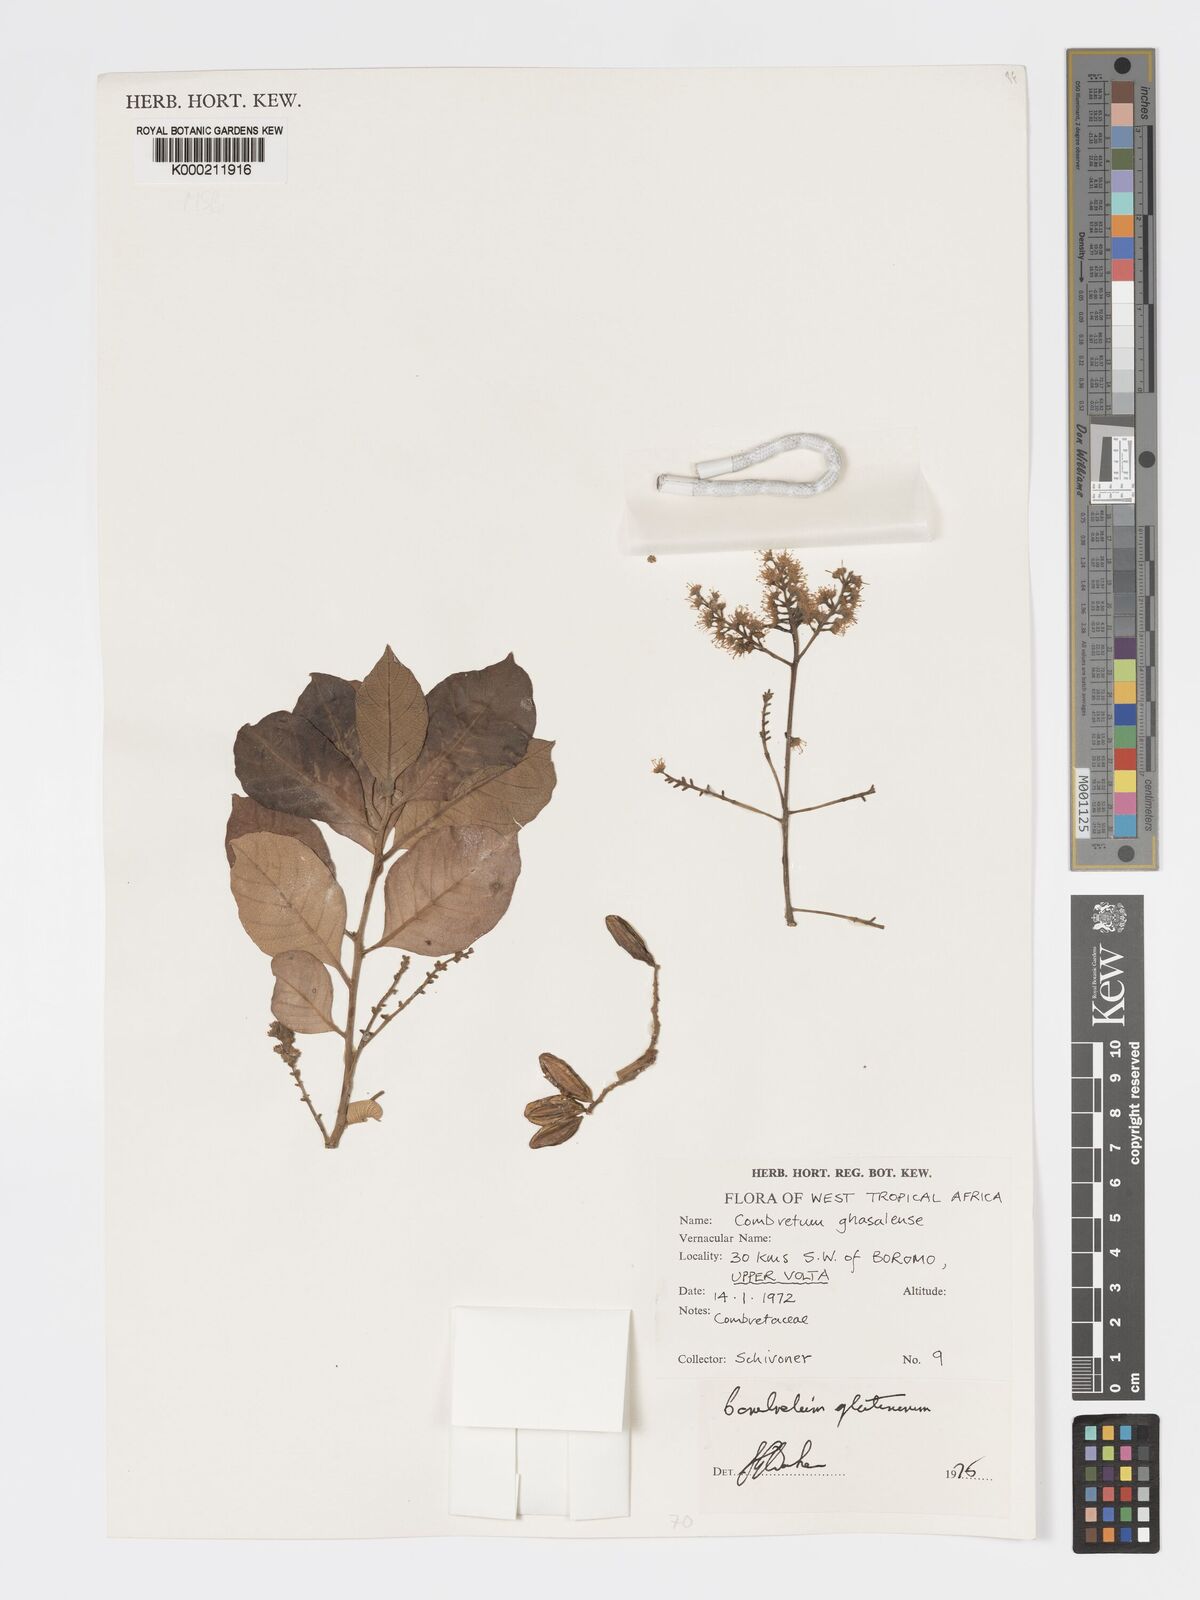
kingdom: Plantae
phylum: Tracheophyta
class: Magnoliopsida
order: Myrtales
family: Combretaceae
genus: Combretum
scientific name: Combretum glutinosum
